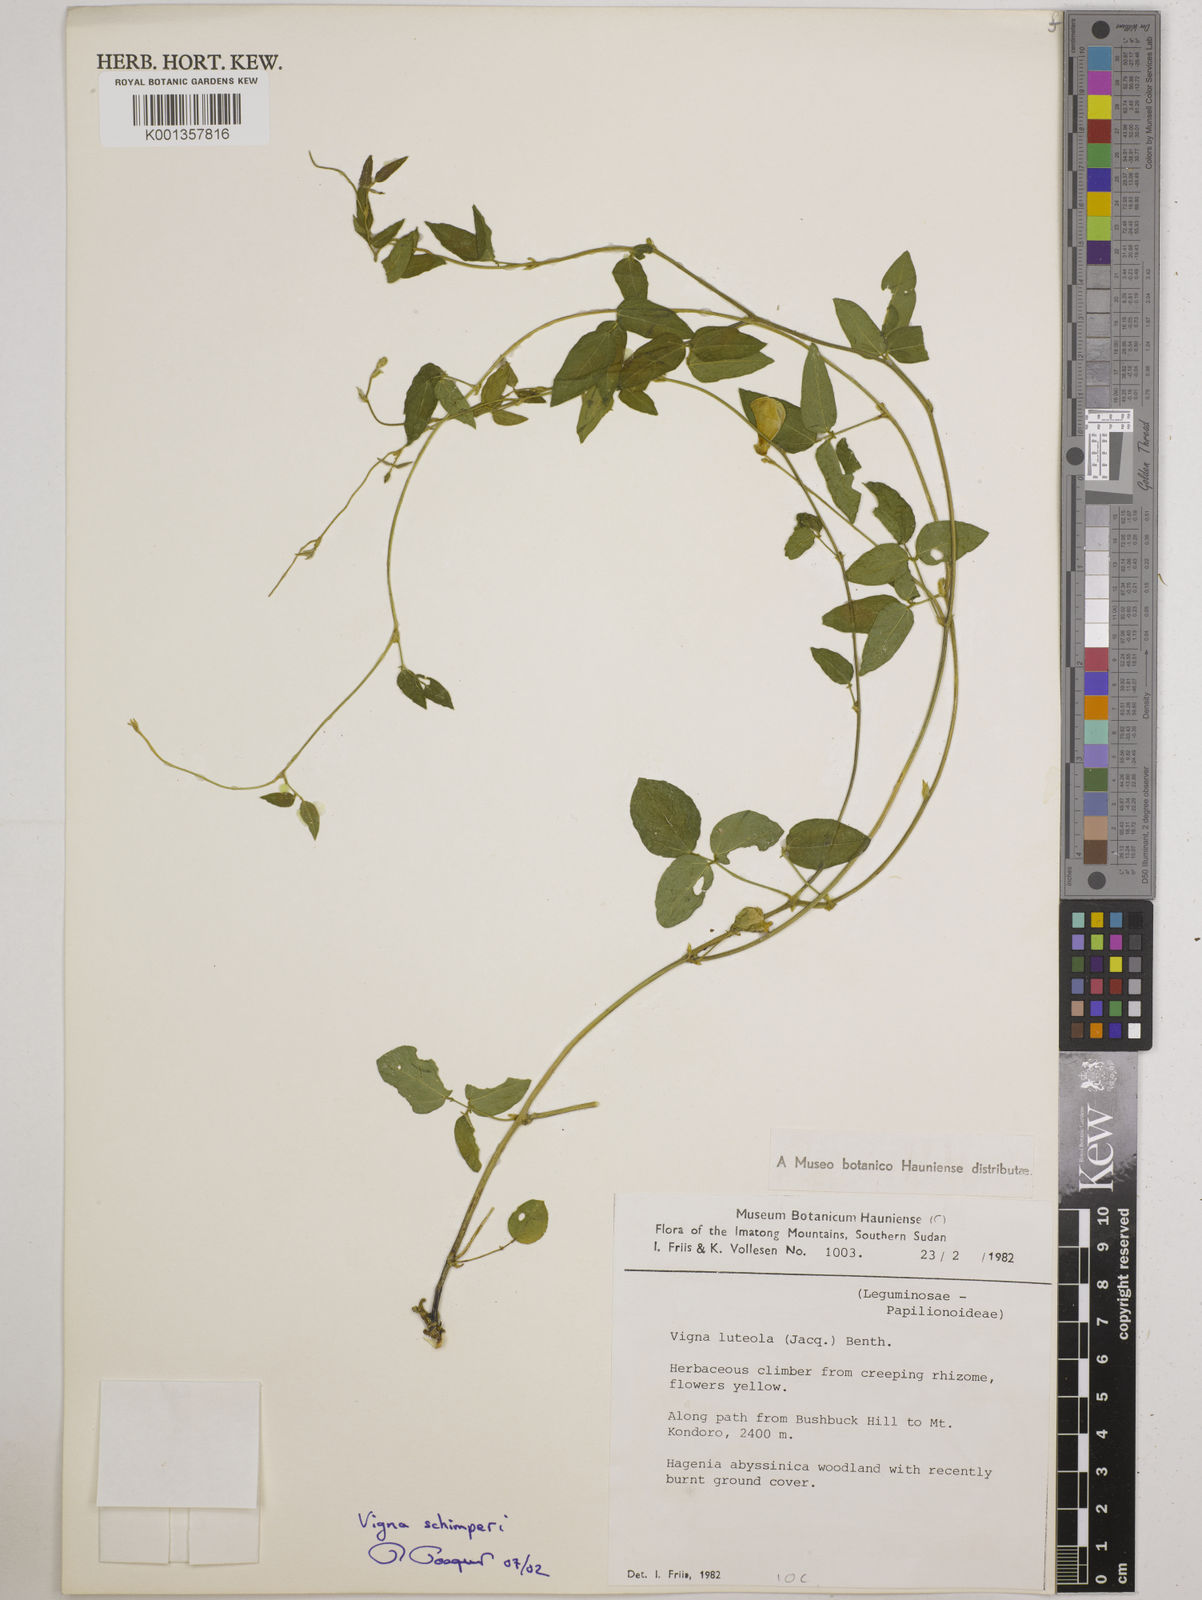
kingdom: Plantae
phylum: Tracheophyta
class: Magnoliopsida
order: Fabales
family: Fabaceae
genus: Vigna
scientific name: Vigna schimperi
